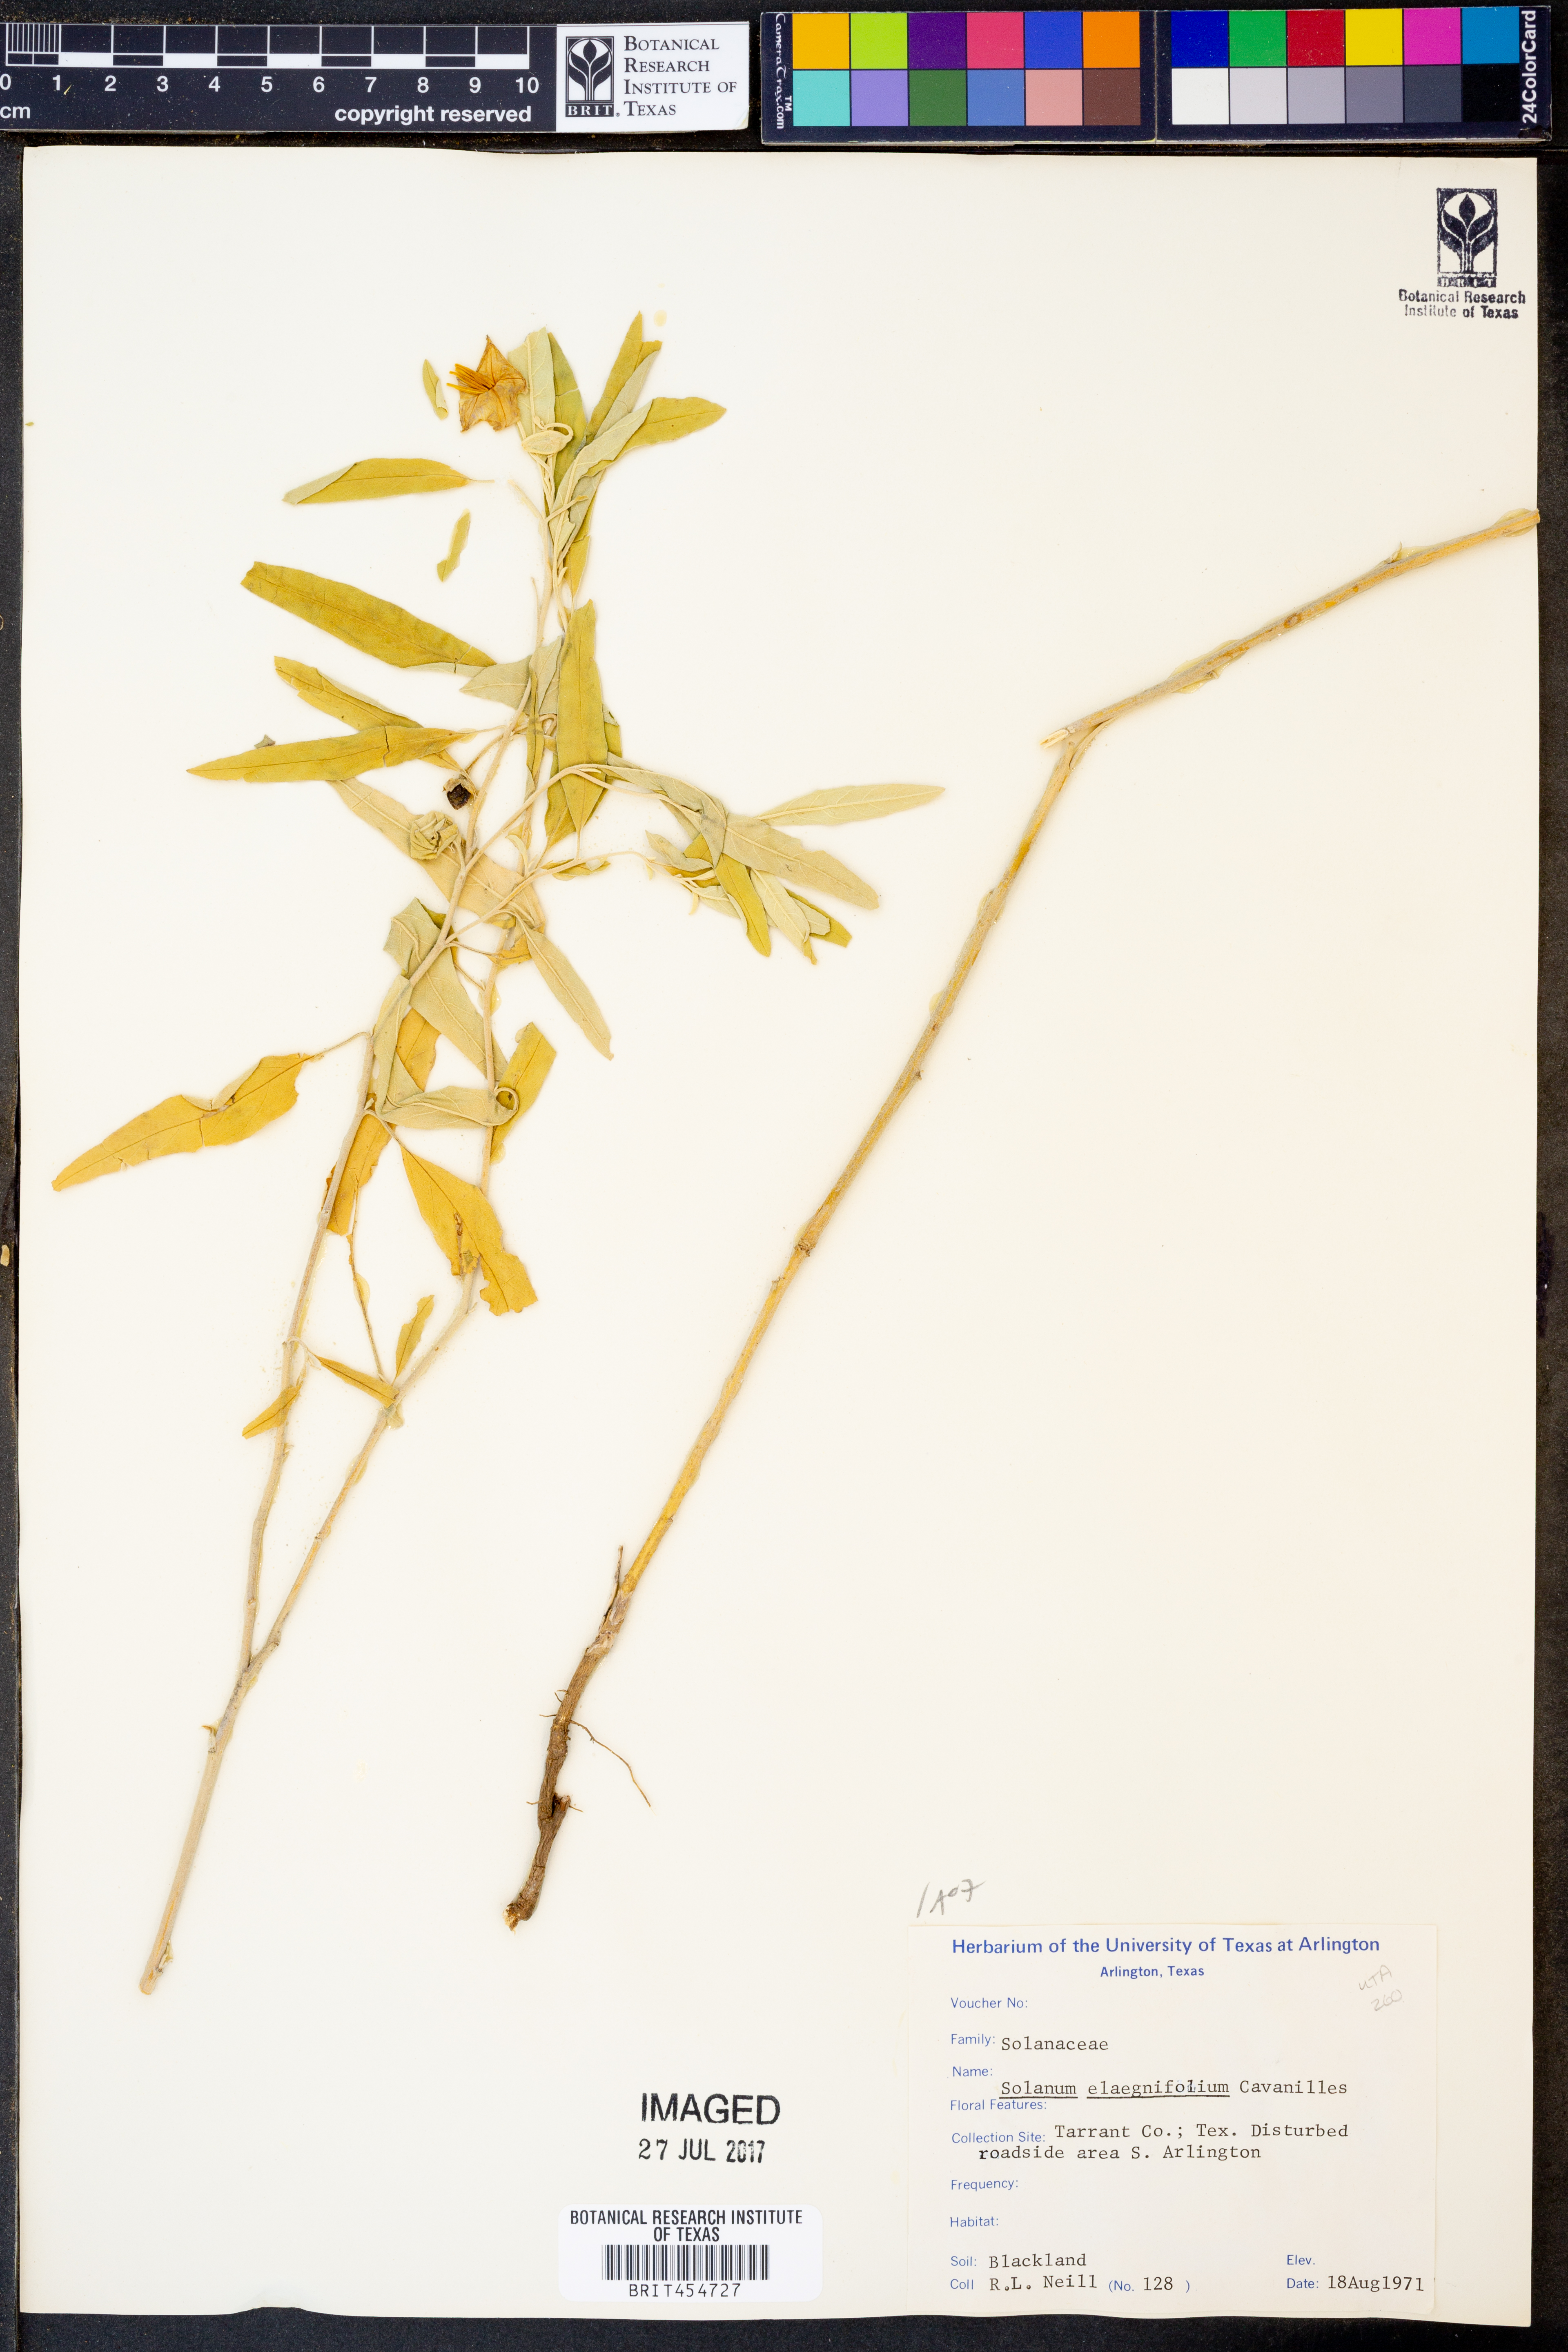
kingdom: Plantae
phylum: Tracheophyta
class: Magnoliopsida
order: Solanales
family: Solanaceae
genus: Solanum
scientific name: Solanum elaeagnifolium
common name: Silverleaf nightshade
